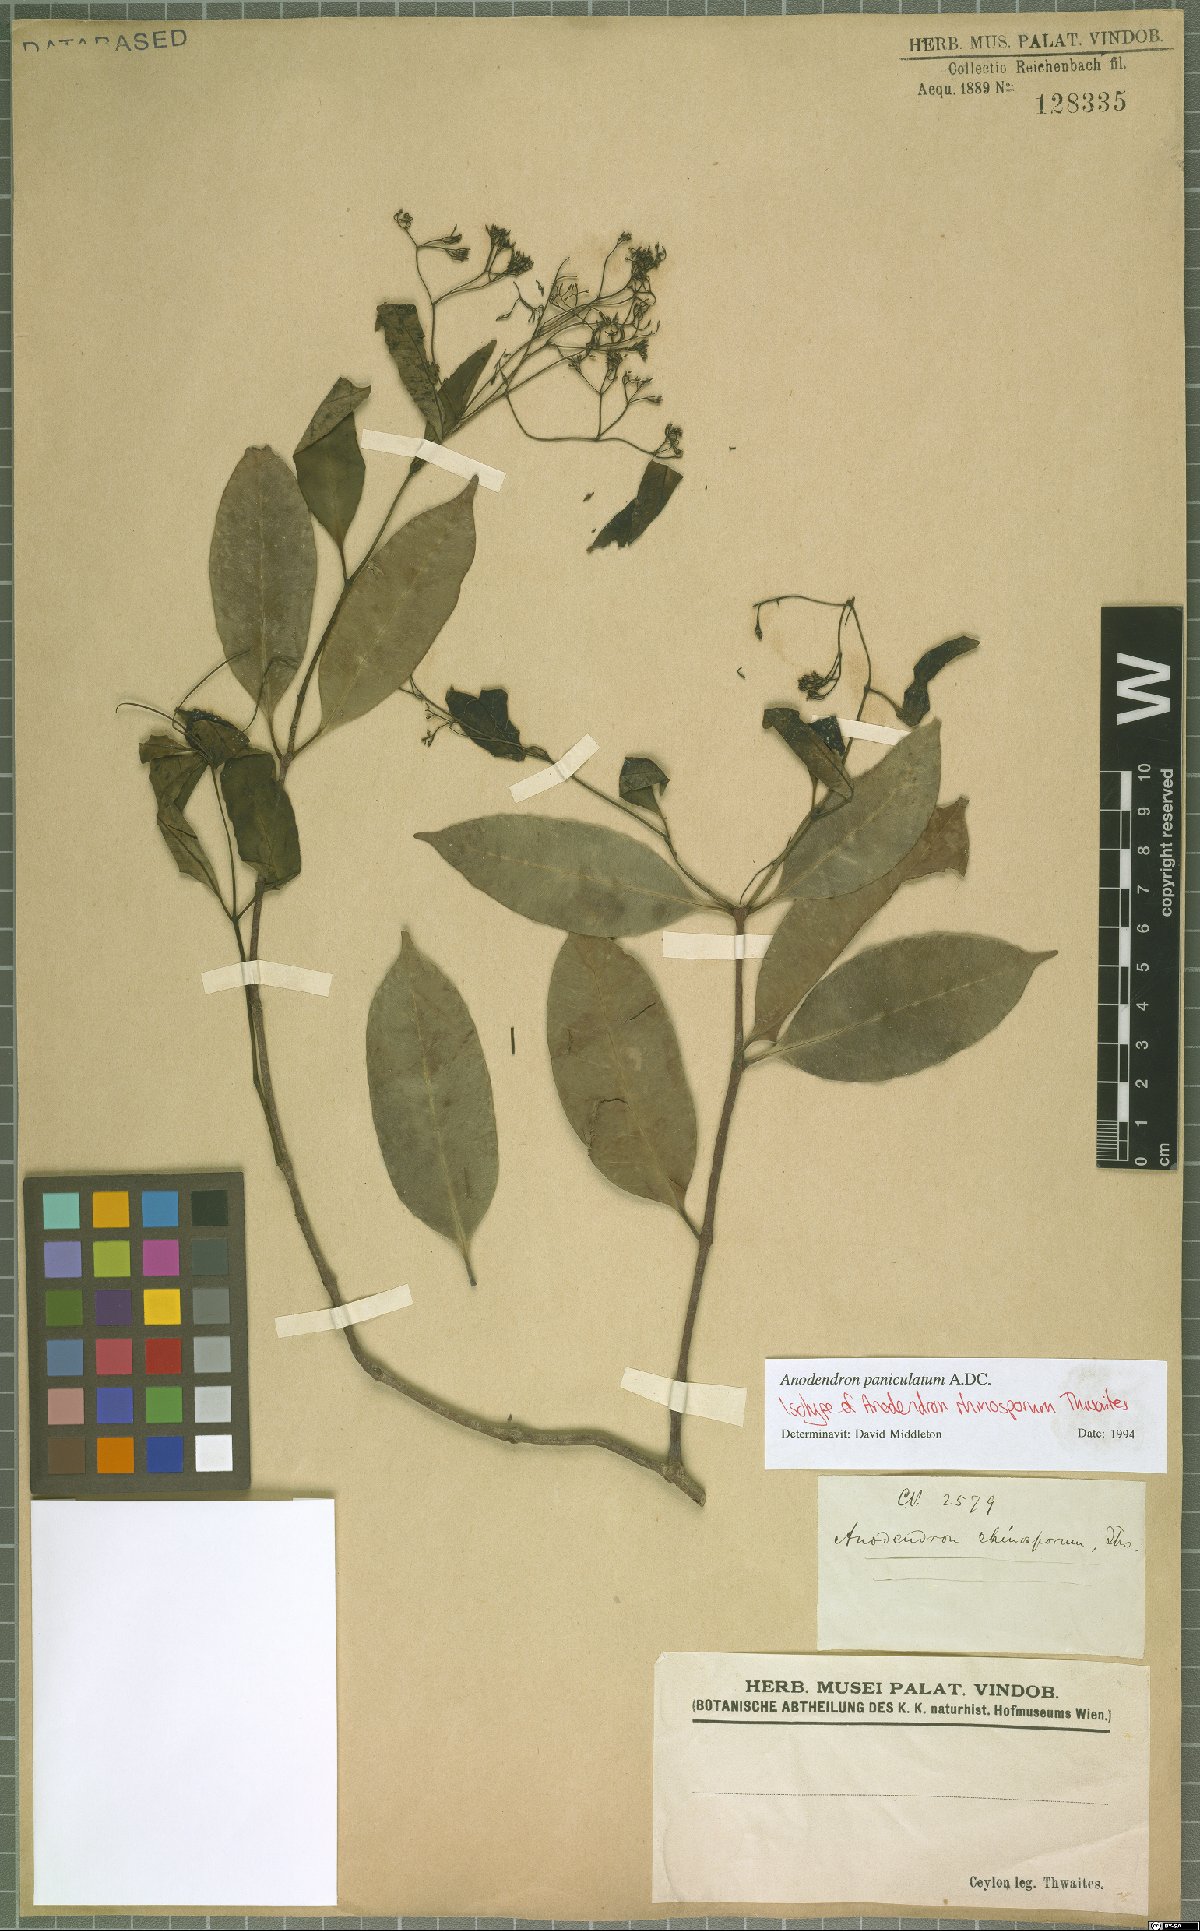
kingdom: Plantae
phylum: Tracheophyta
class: Magnoliopsida
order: Gentianales
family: Apocynaceae
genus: Anodendron
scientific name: Anodendron parviflorum
